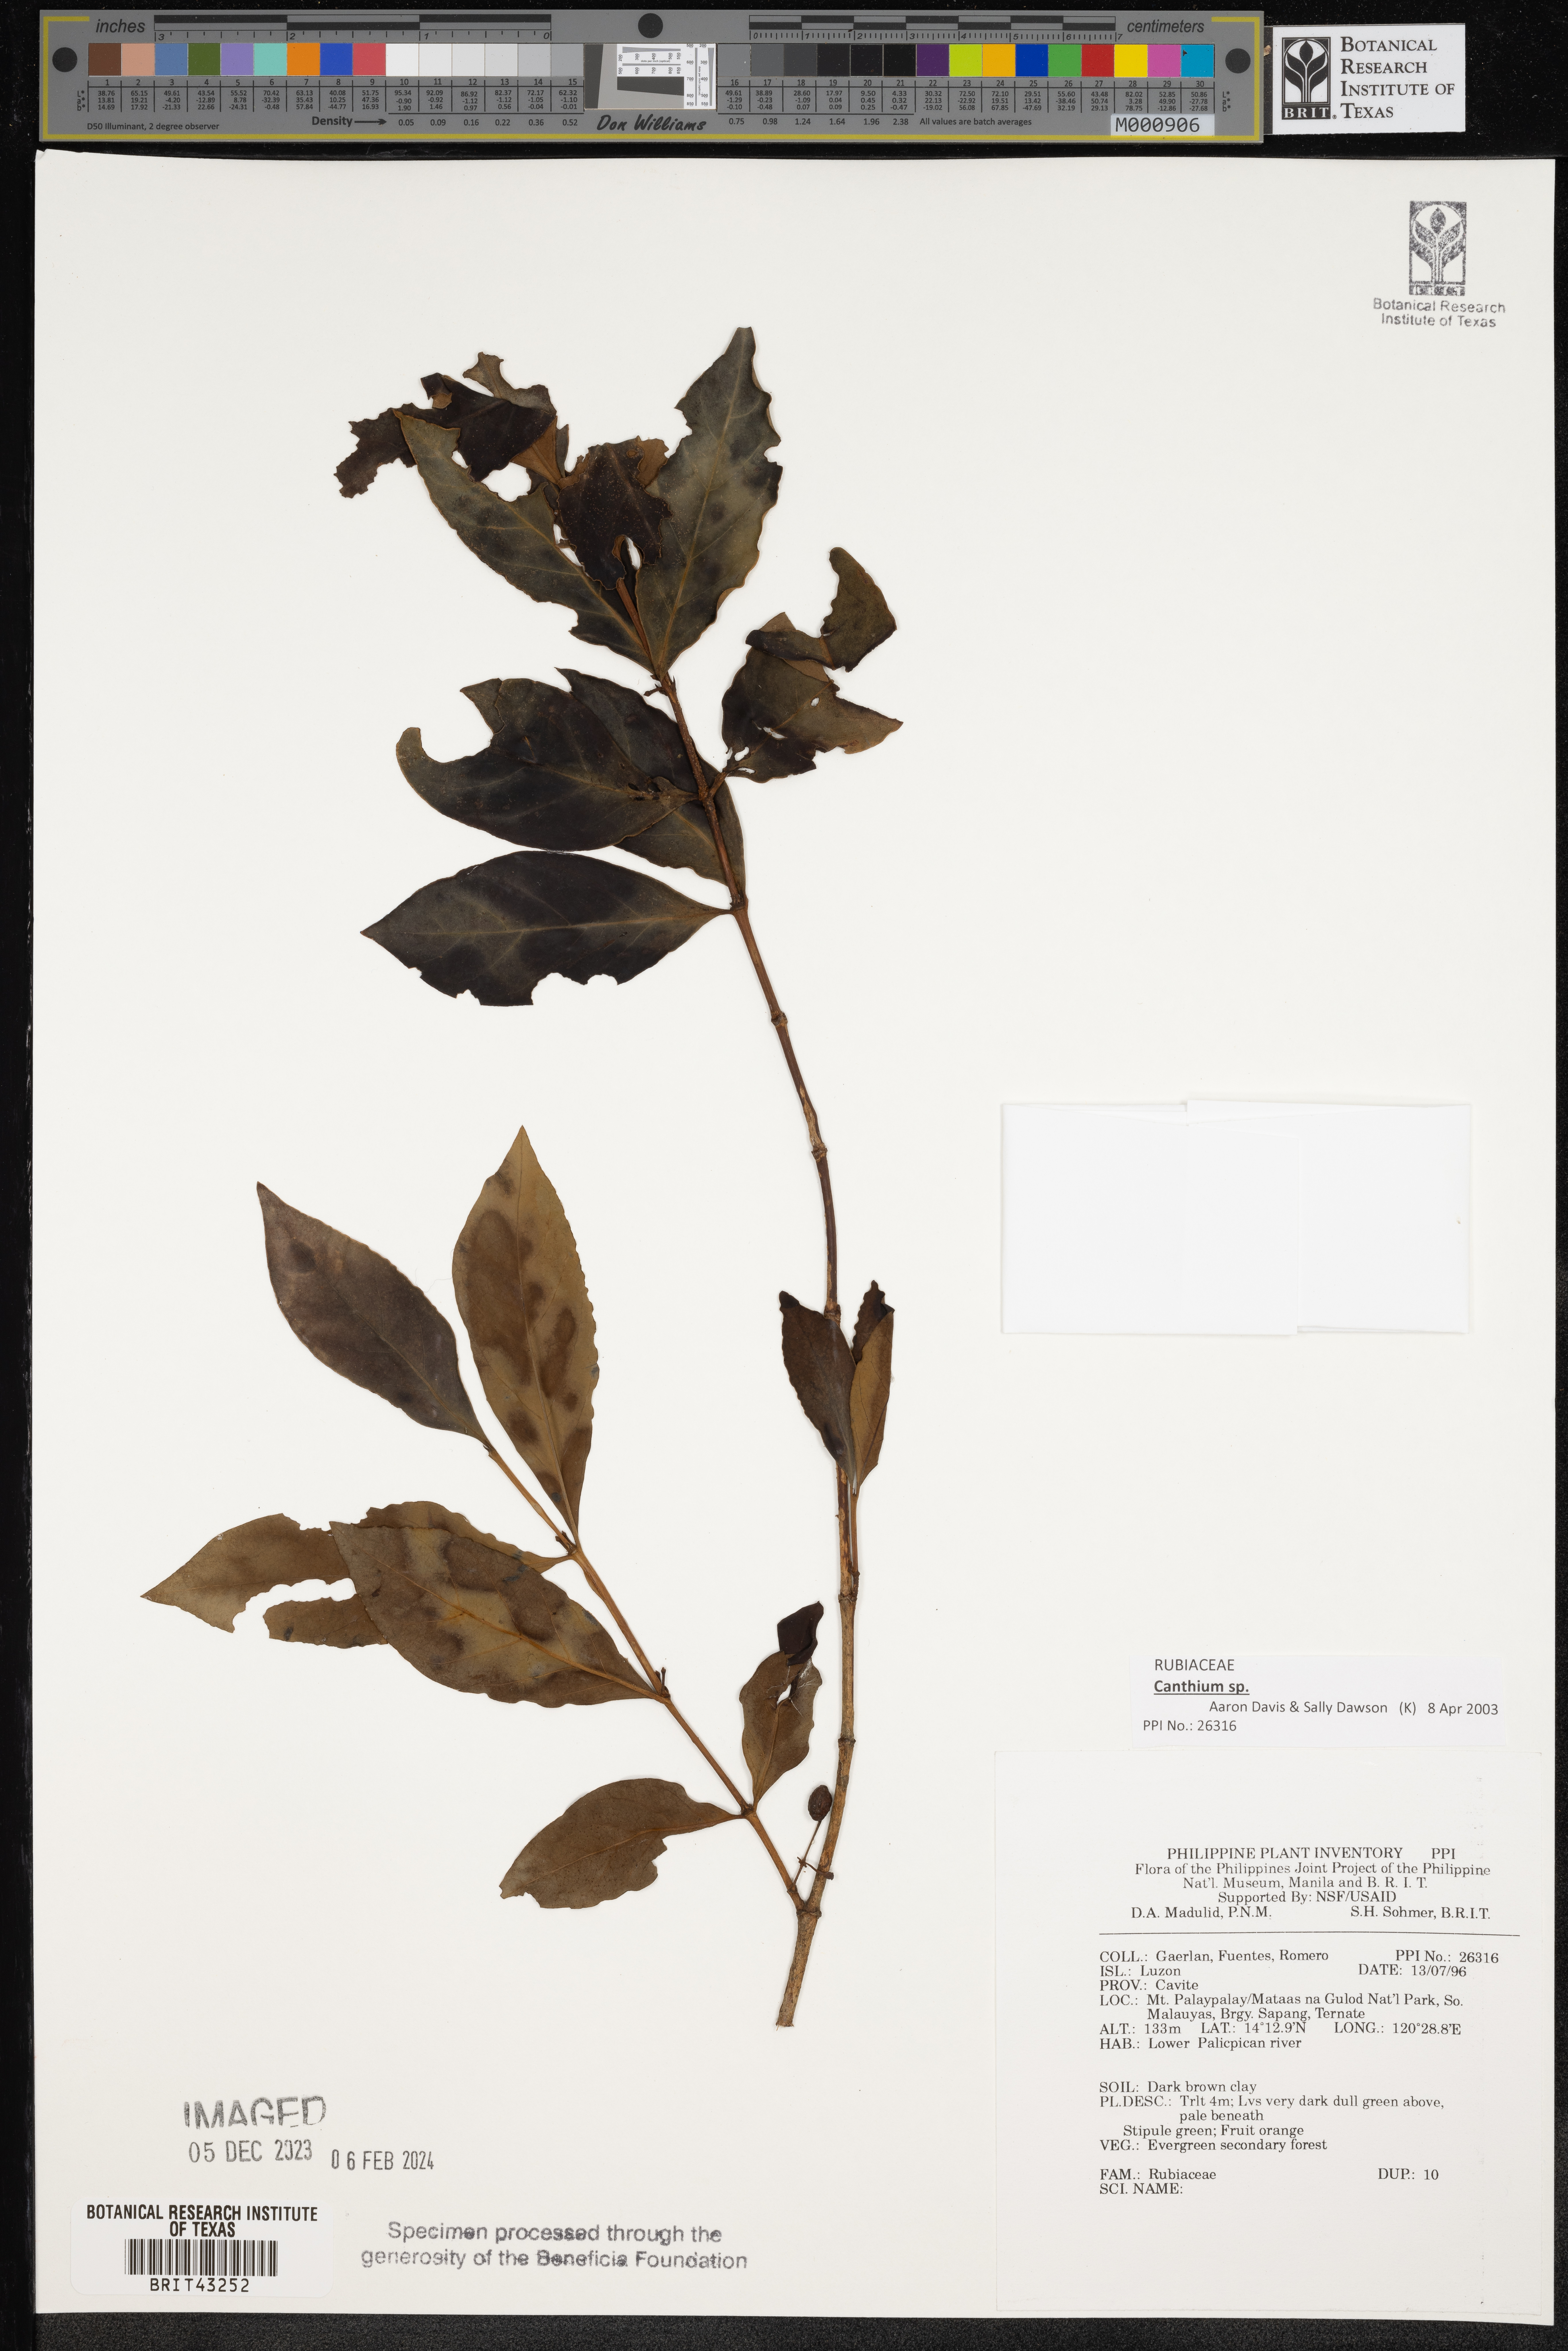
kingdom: Plantae
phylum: Tracheophyta
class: Magnoliopsida
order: Gentianales
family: Rubiaceae
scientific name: Rubiaceae
